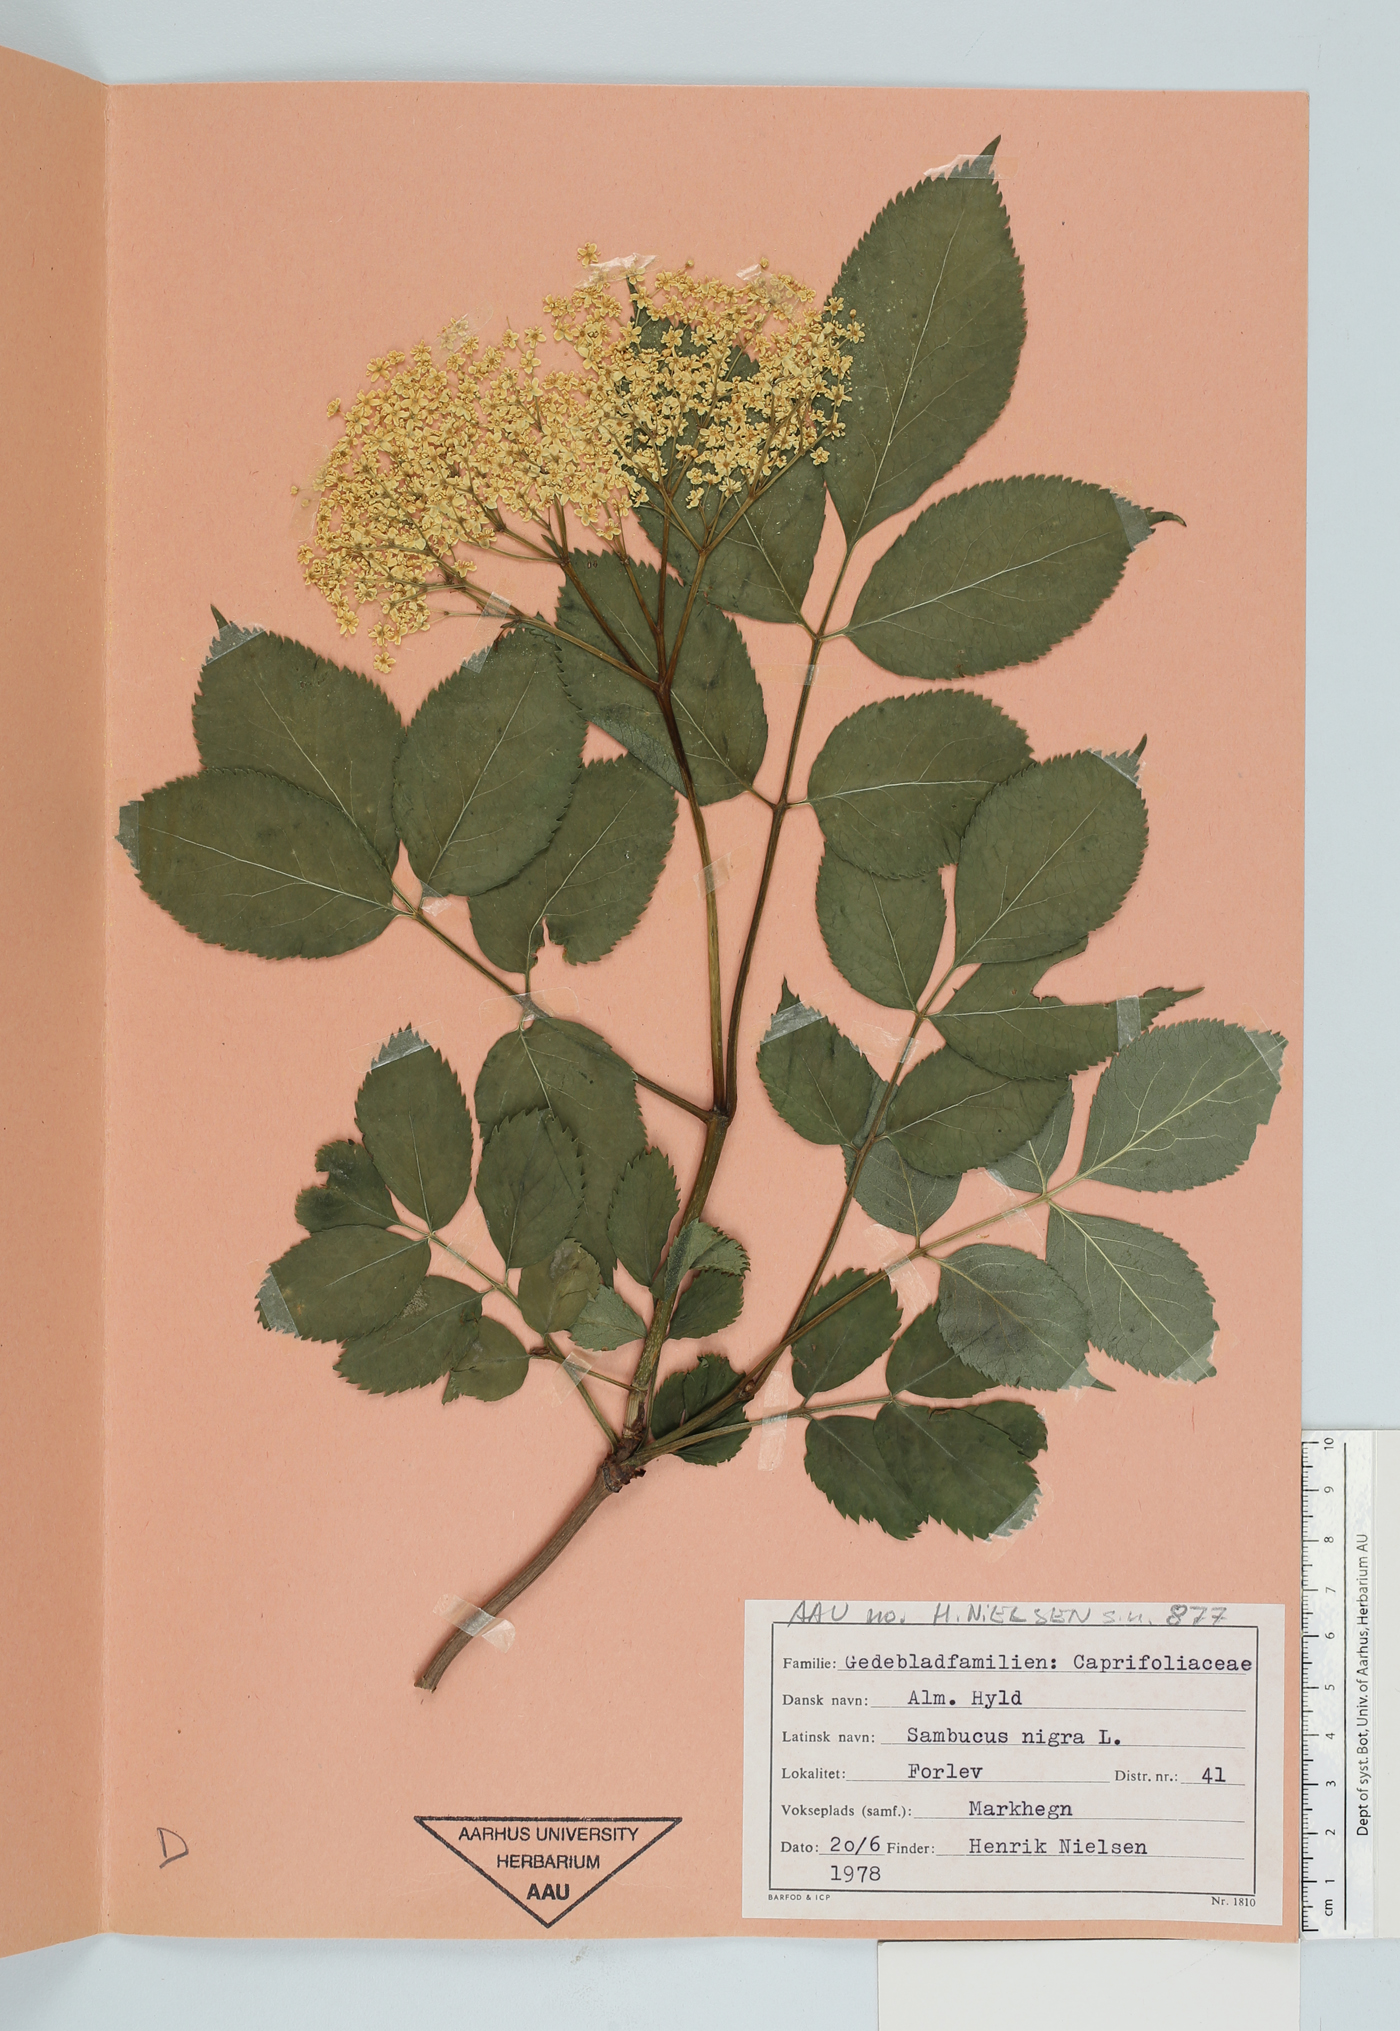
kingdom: Plantae
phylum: Tracheophyta
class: Magnoliopsida
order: Dipsacales
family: Viburnaceae
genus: Sambucus
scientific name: Sambucus nigra
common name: Elder
